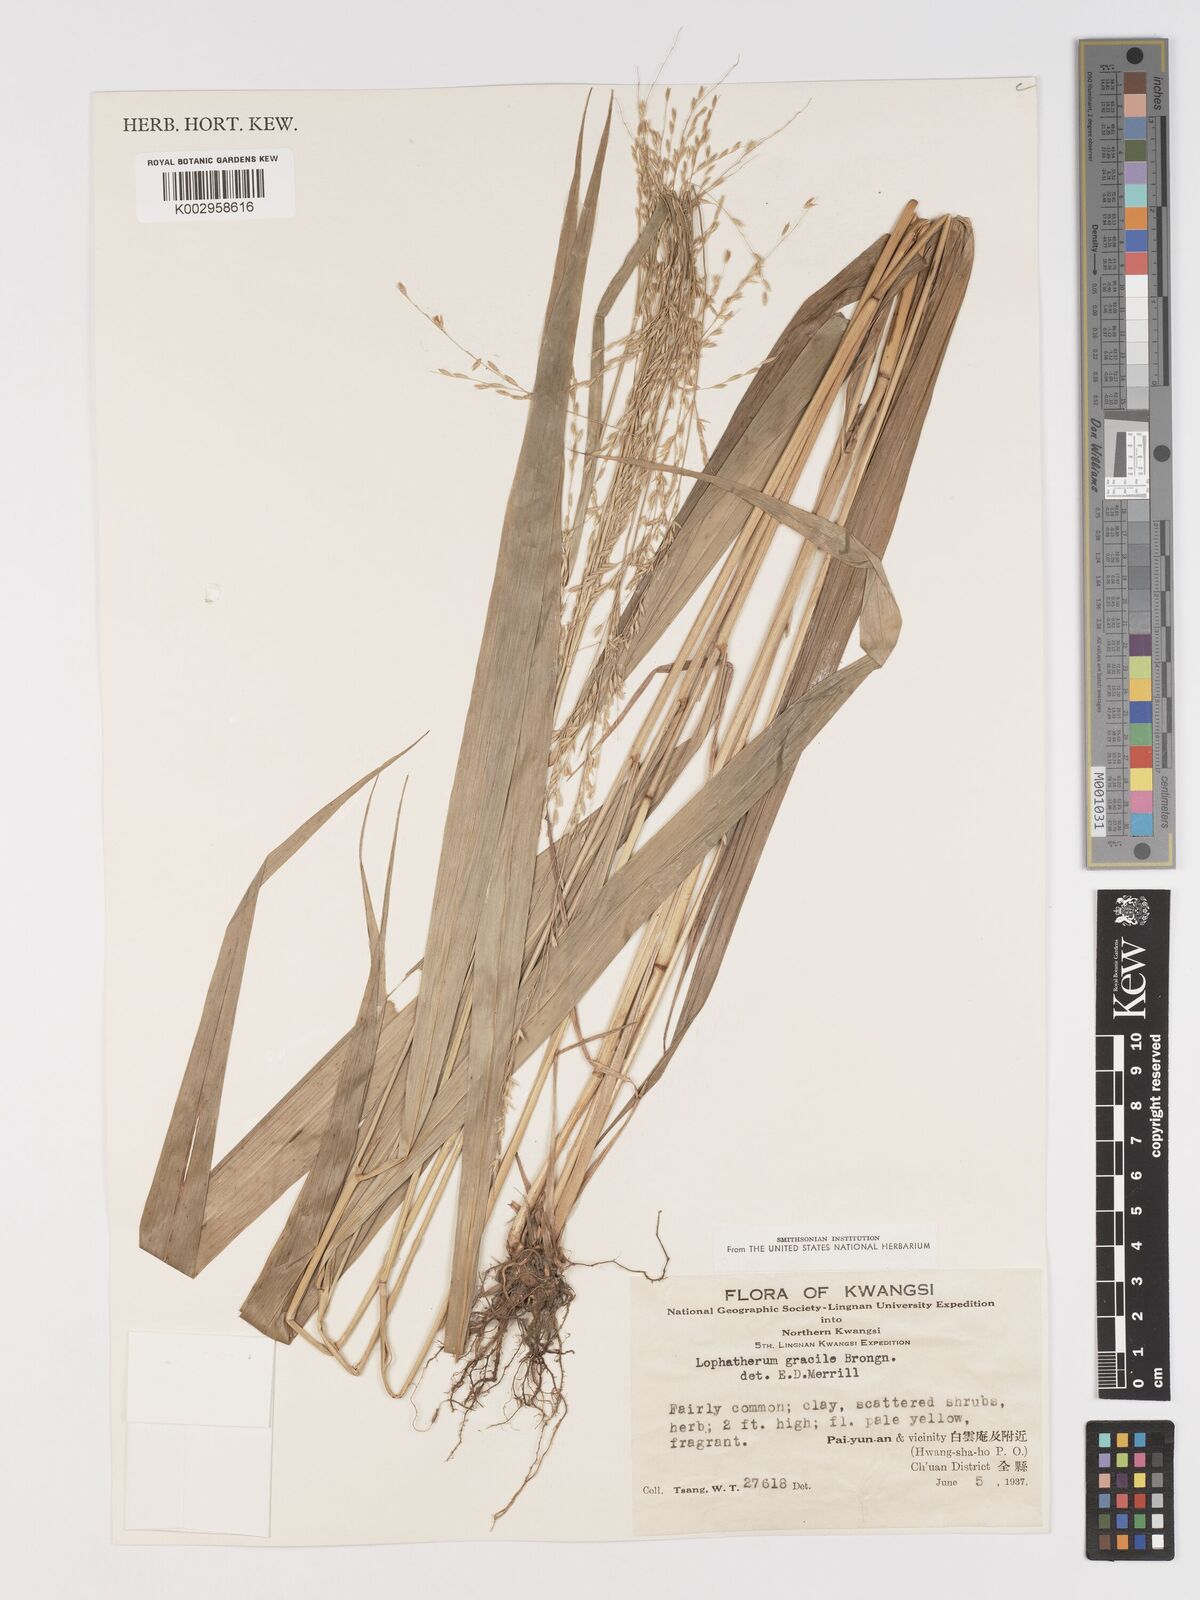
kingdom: Plantae
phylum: Tracheophyta
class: Liliopsida
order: Poales
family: Poaceae
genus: Phaenosperma
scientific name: Phaenosperma globosum
